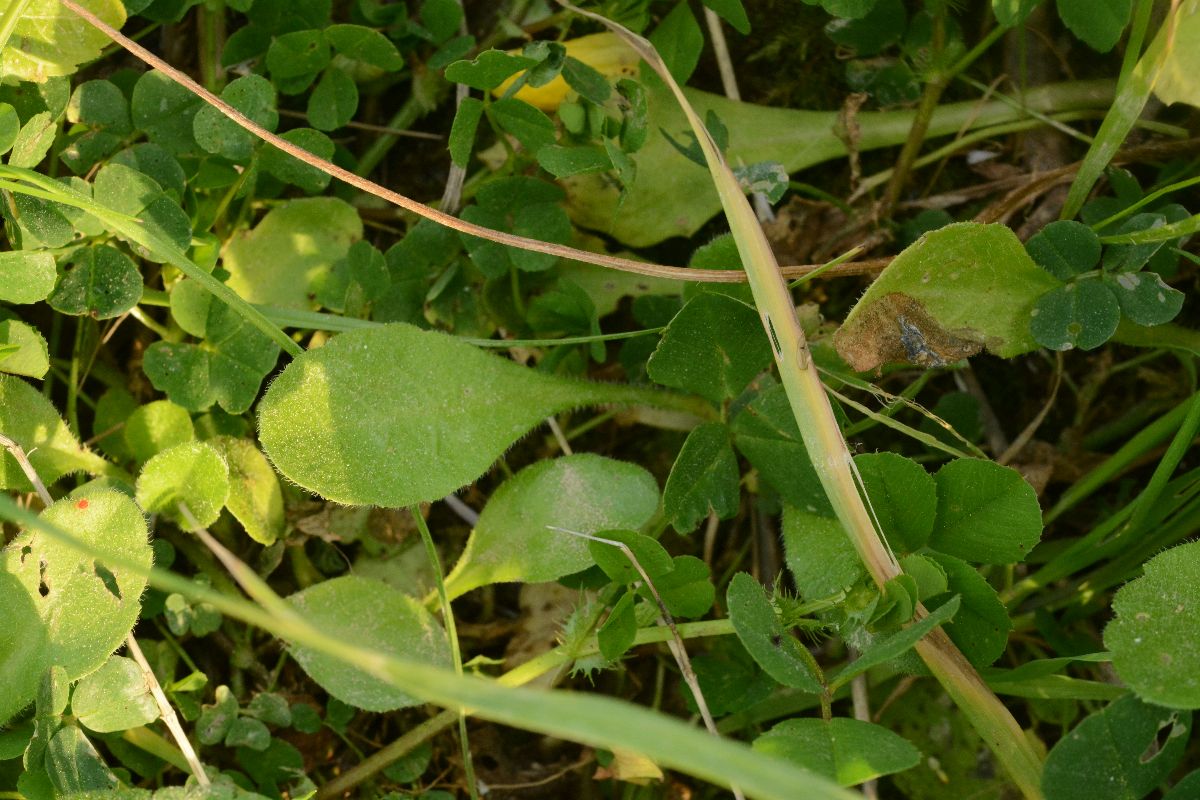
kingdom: Plantae
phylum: Tracheophyta
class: Magnoliopsida
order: Asterales
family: Asteraceae
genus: Bellis
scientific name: Bellis annua
